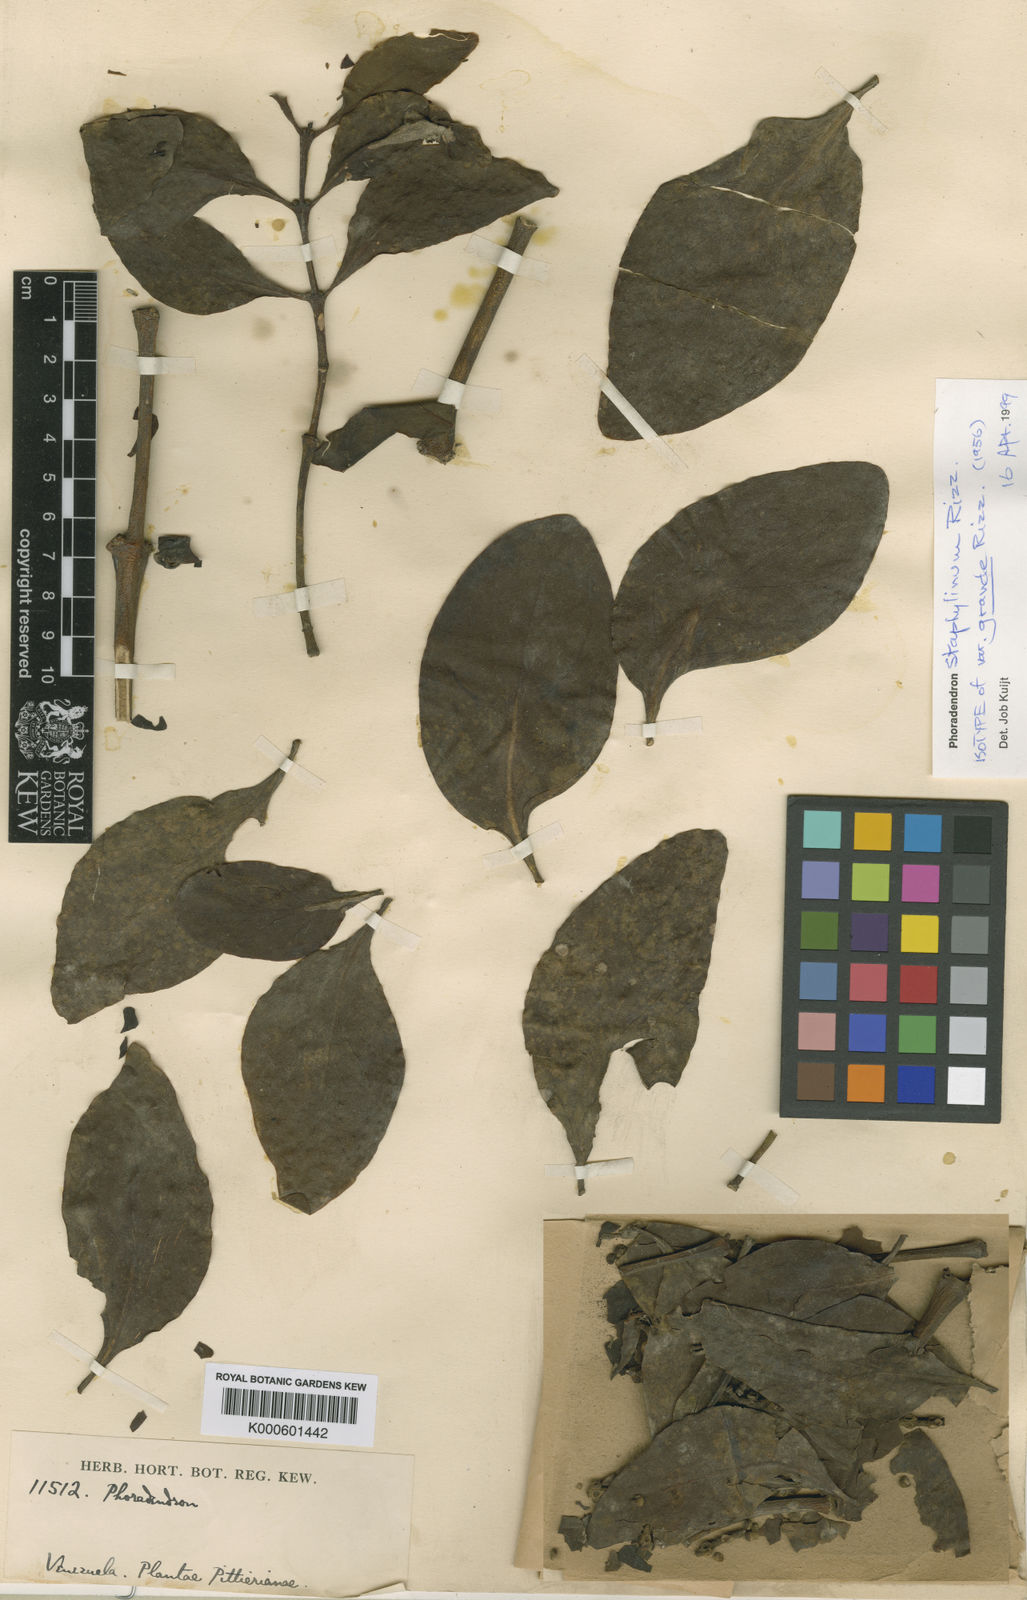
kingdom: Plantae
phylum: Tracheophyta
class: Magnoliopsida
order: Santalales
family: Viscaceae
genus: Phoradendron
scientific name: Phoradendron staphylinum
